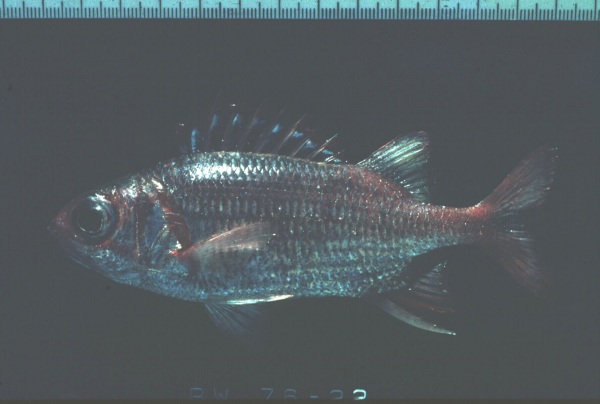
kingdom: Animalia
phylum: Chordata
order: Beryciformes
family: Holocentridae
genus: Sargocentron
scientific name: Sargocentron punctatissimum
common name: Peppered squirrelfish
